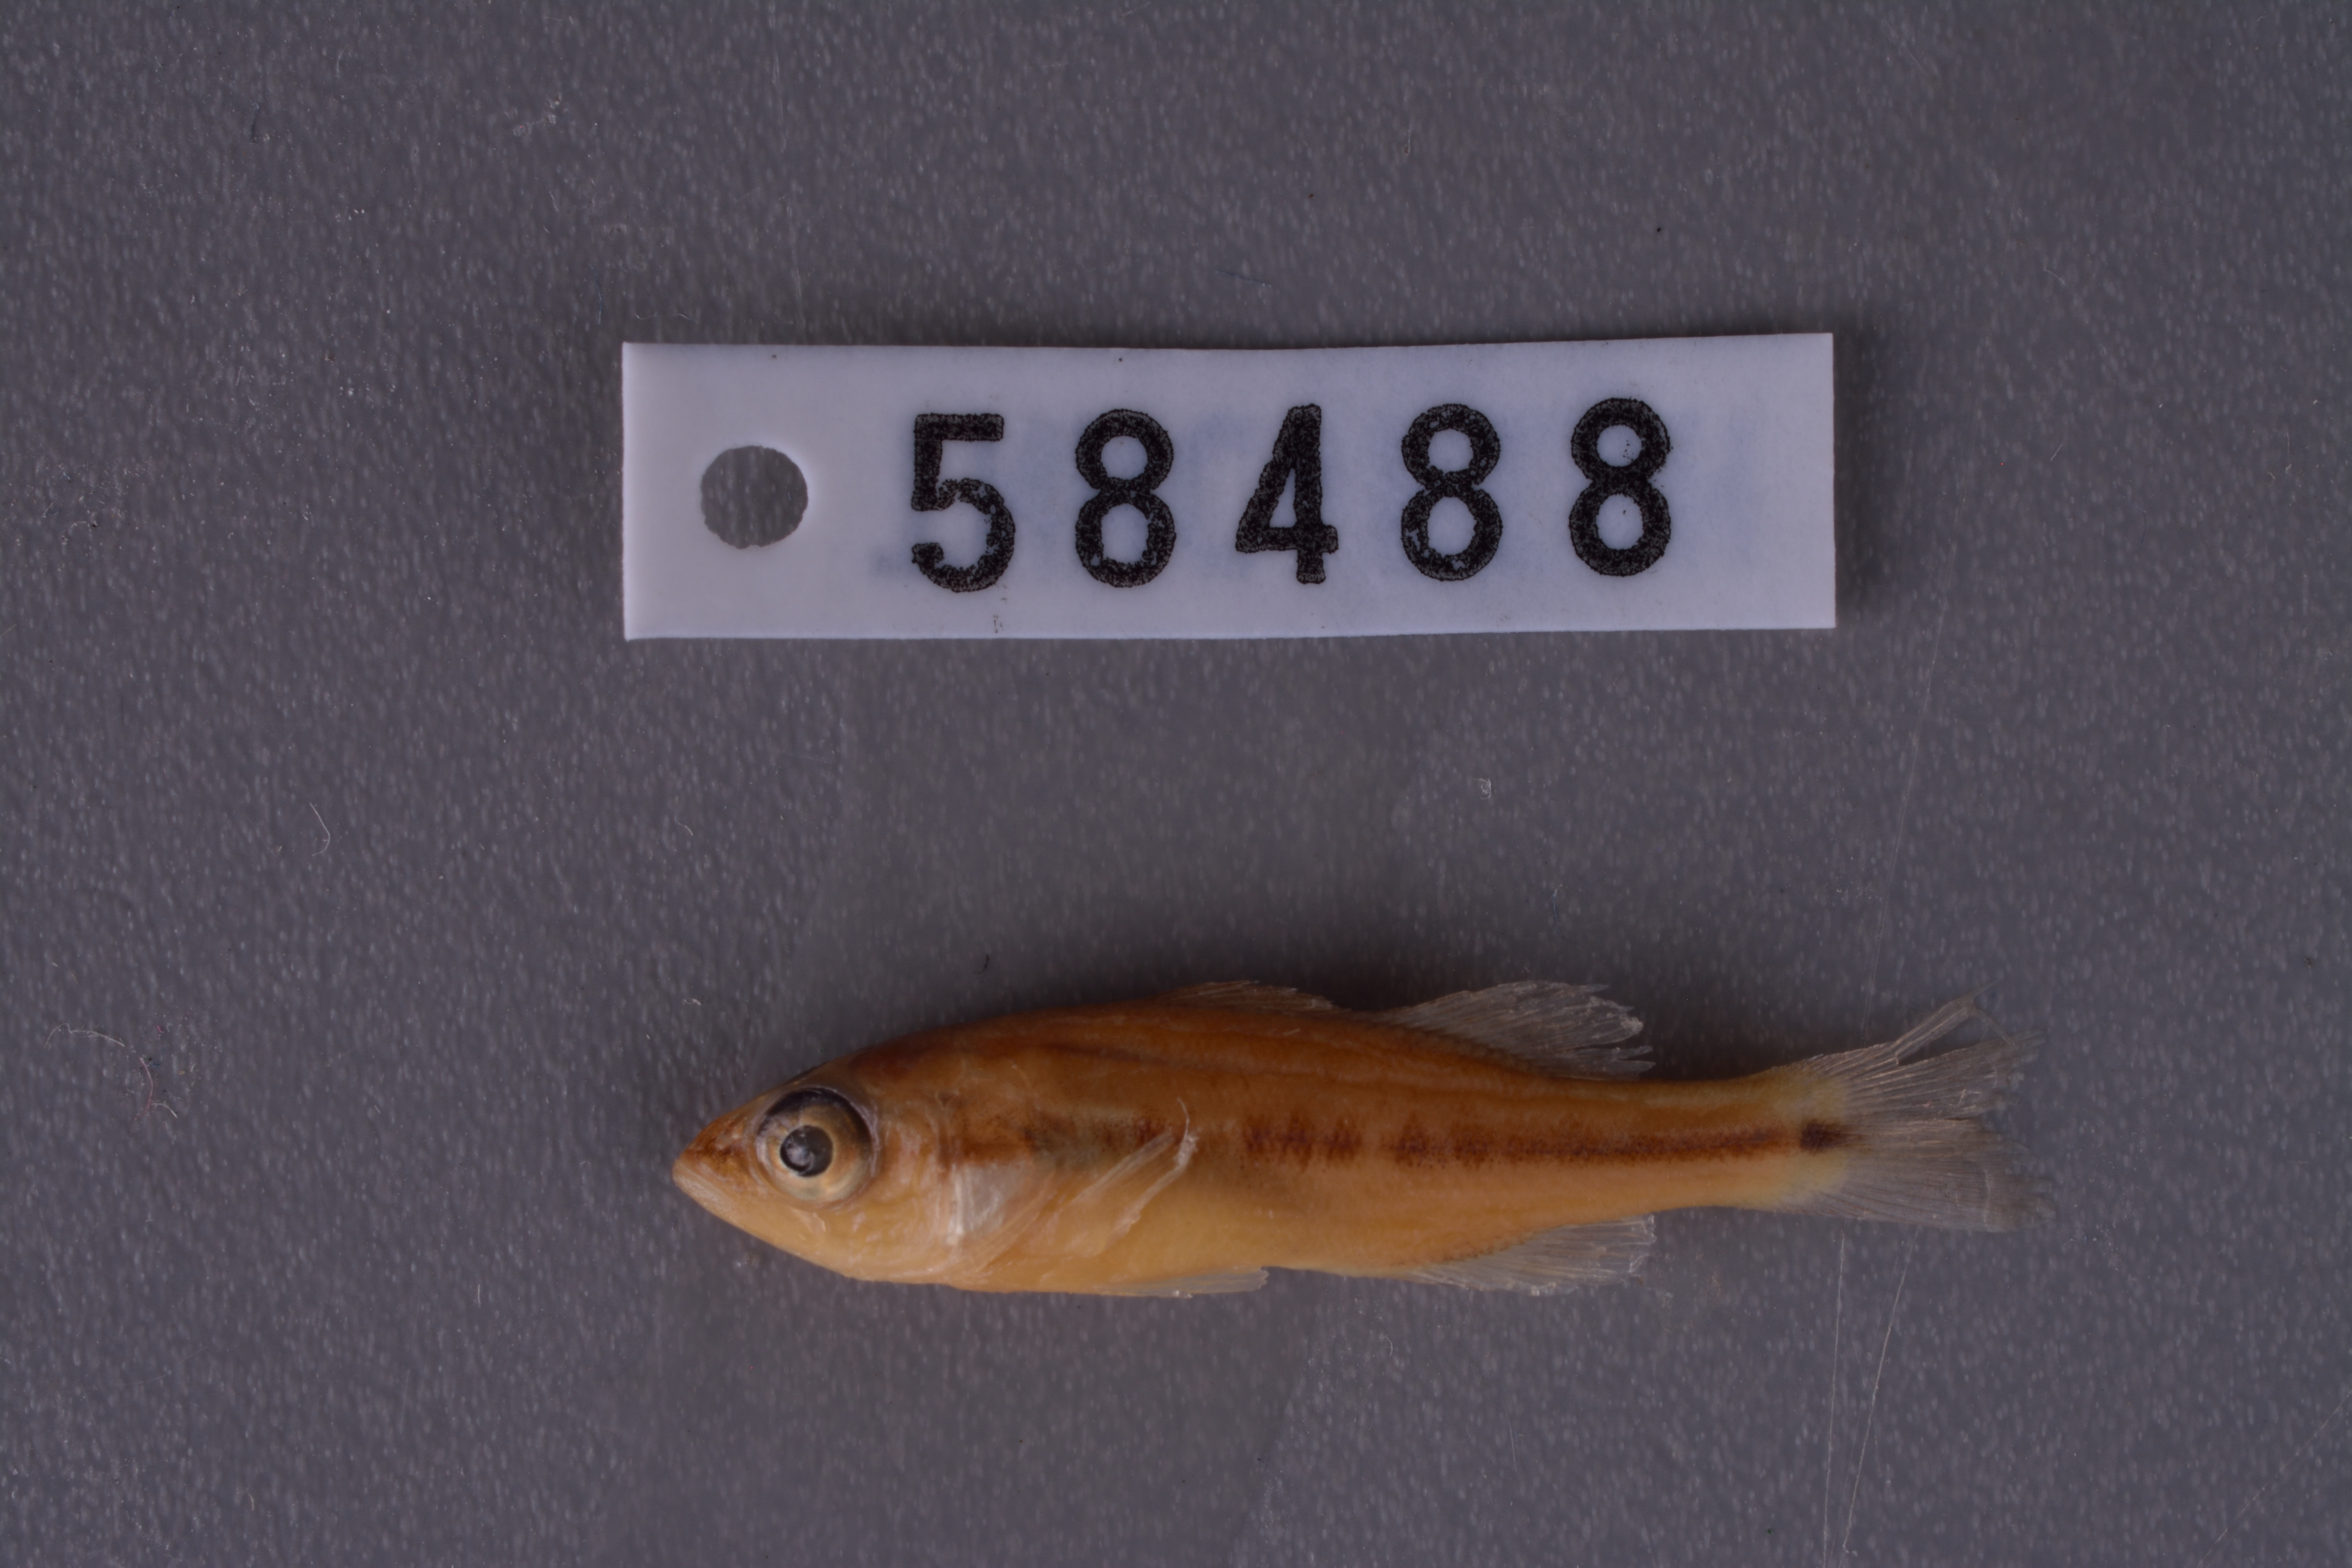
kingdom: Animalia
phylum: Chordata
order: Perciformes
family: Centrarchidae
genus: Micropterus
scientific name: Micropterus salmoides
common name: Largemouth bass
